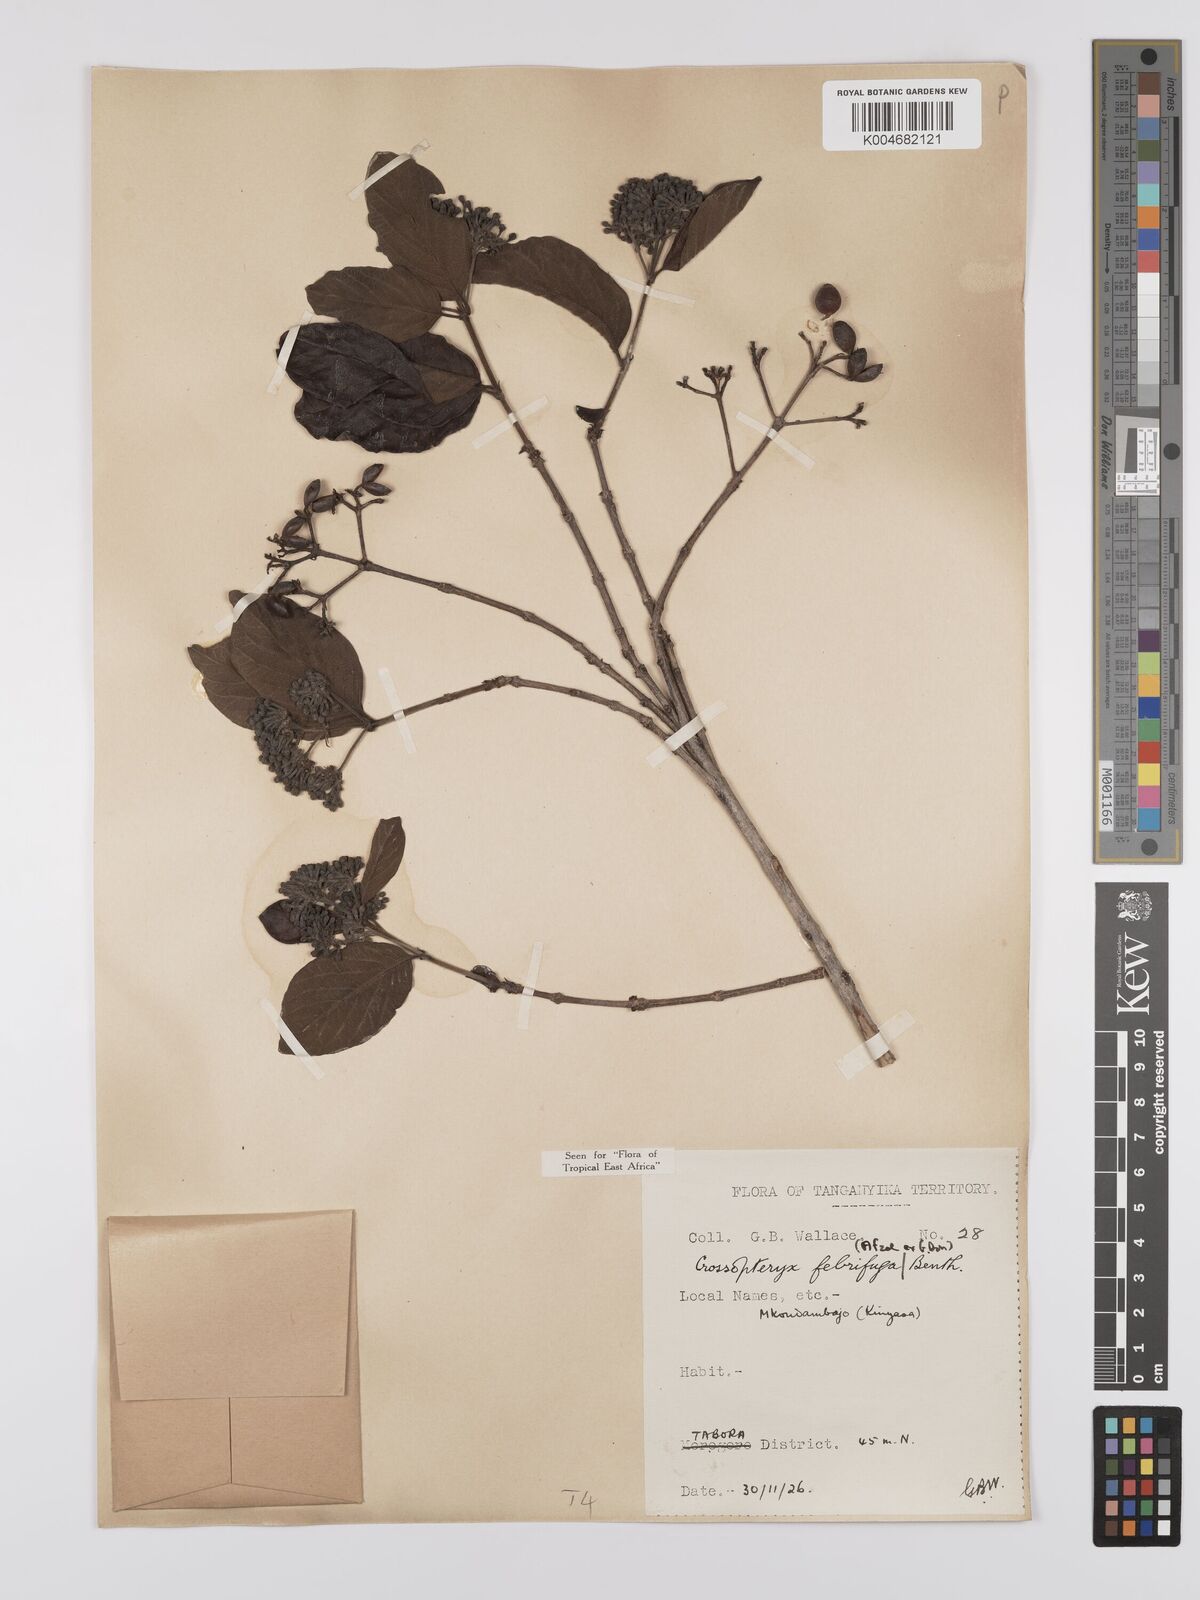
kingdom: Plantae
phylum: Tracheophyta
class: Magnoliopsida
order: Gentianales
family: Rubiaceae
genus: Crossopteryx
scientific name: Crossopteryx febrifuga
